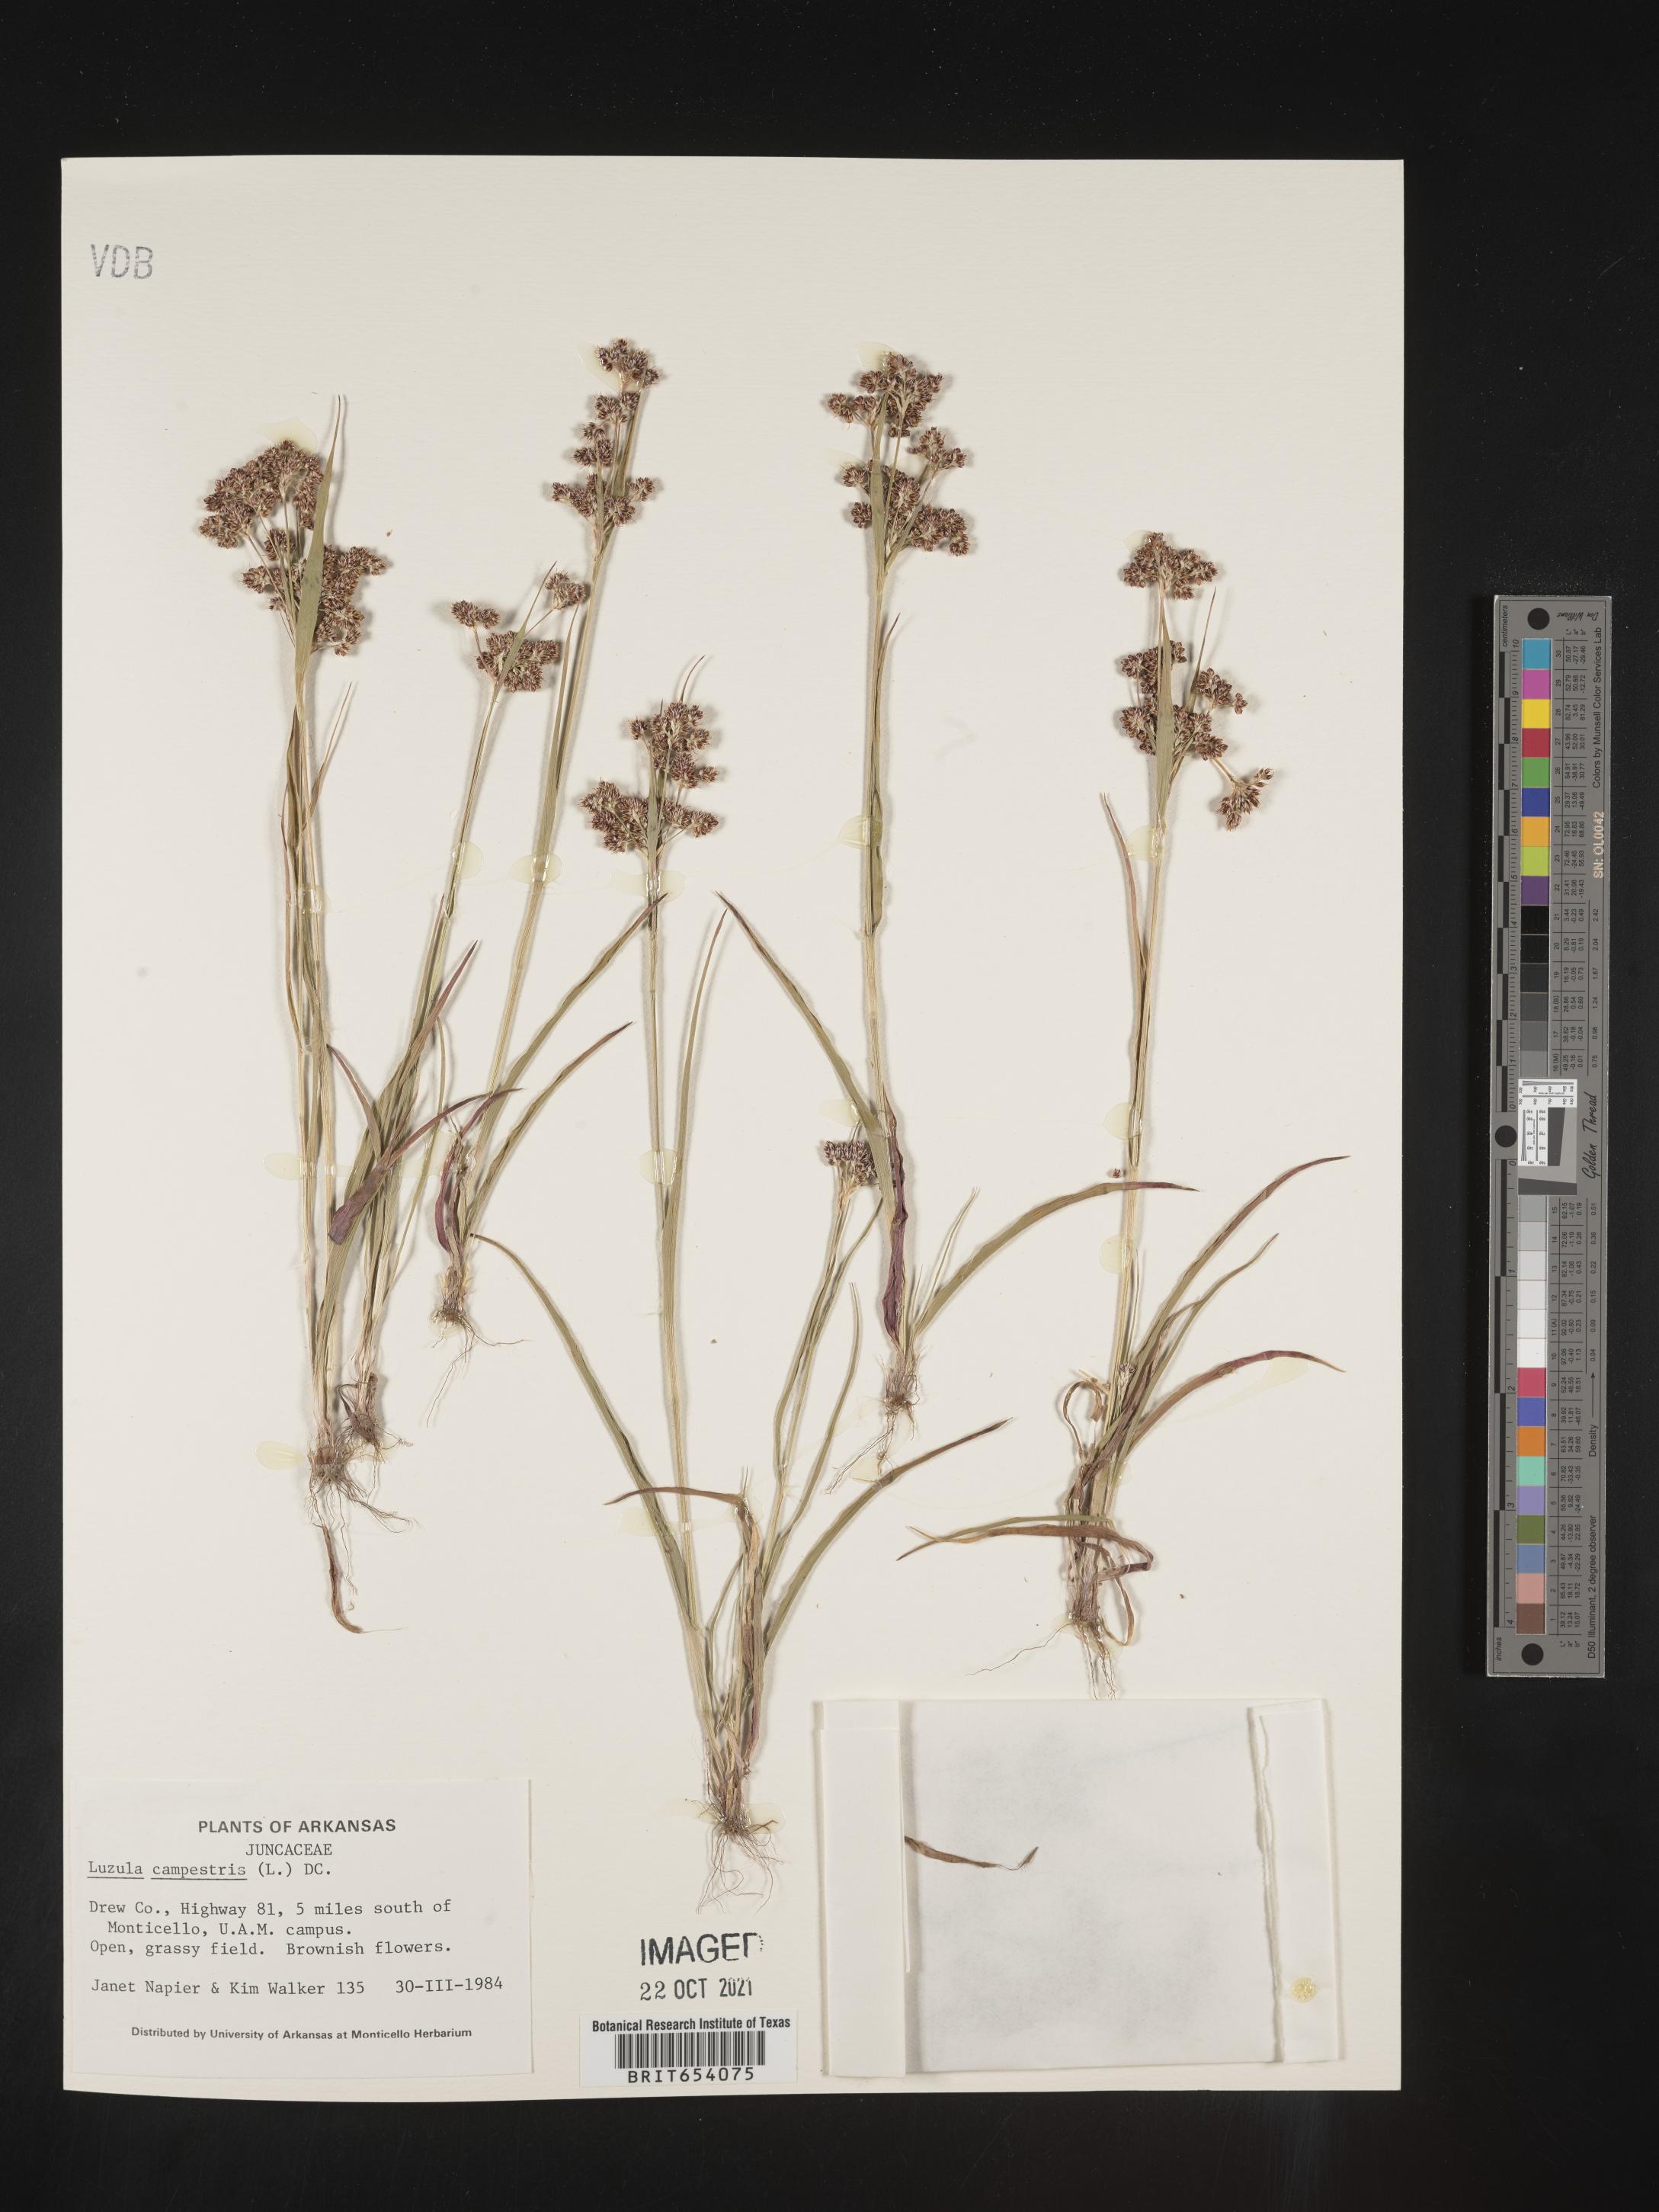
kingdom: Plantae
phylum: Tracheophyta
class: Liliopsida
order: Poales
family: Juncaceae
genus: Luzula
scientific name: Luzula bulbosa
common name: Bulbous woodrush
